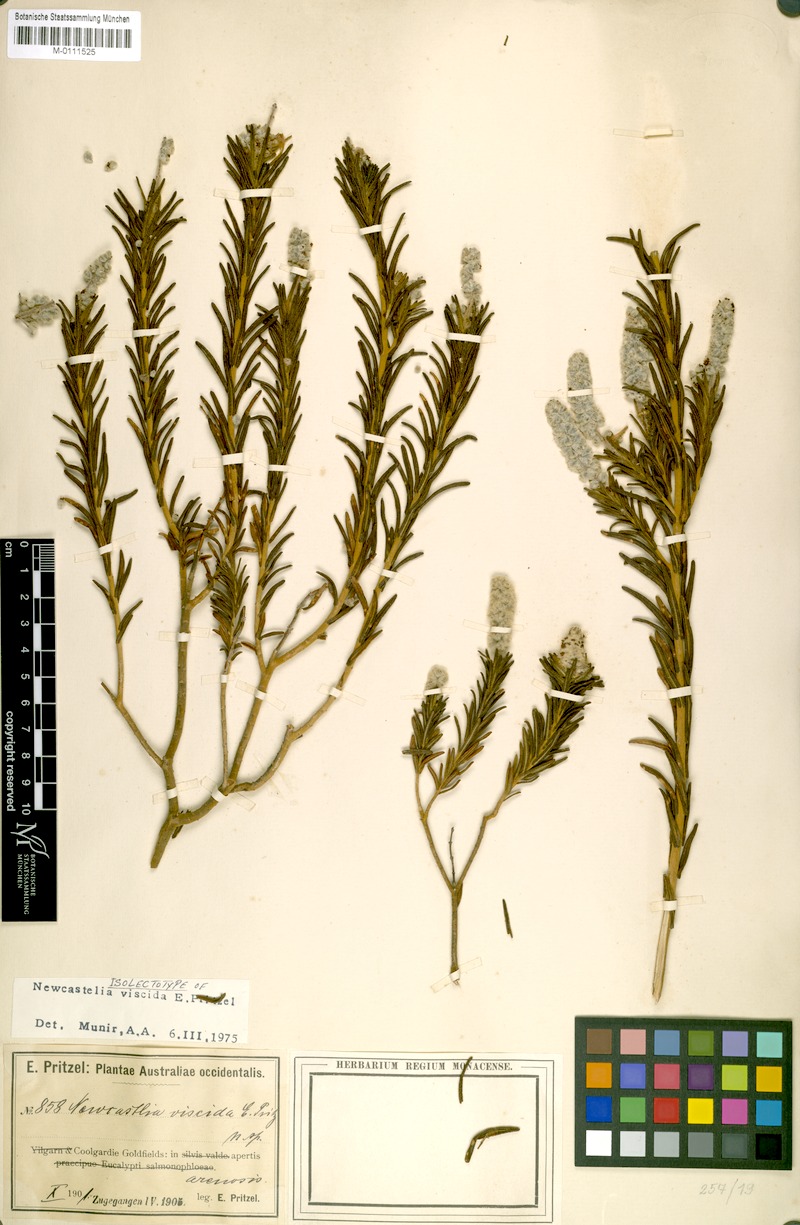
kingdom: Plantae
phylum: Tracheophyta
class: Magnoliopsida
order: Lamiales
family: Lamiaceae
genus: Apatelantha
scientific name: Apatelantha viscida
